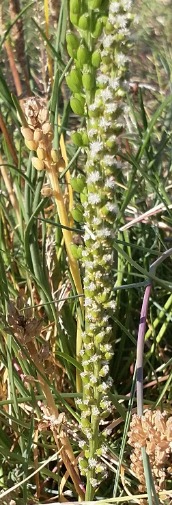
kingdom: Plantae
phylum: Tracheophyta
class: Liliopsida
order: Alismatales
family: Juncaginaceae
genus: Triglochin
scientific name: Triglochin maritima
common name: Strand-trehage
